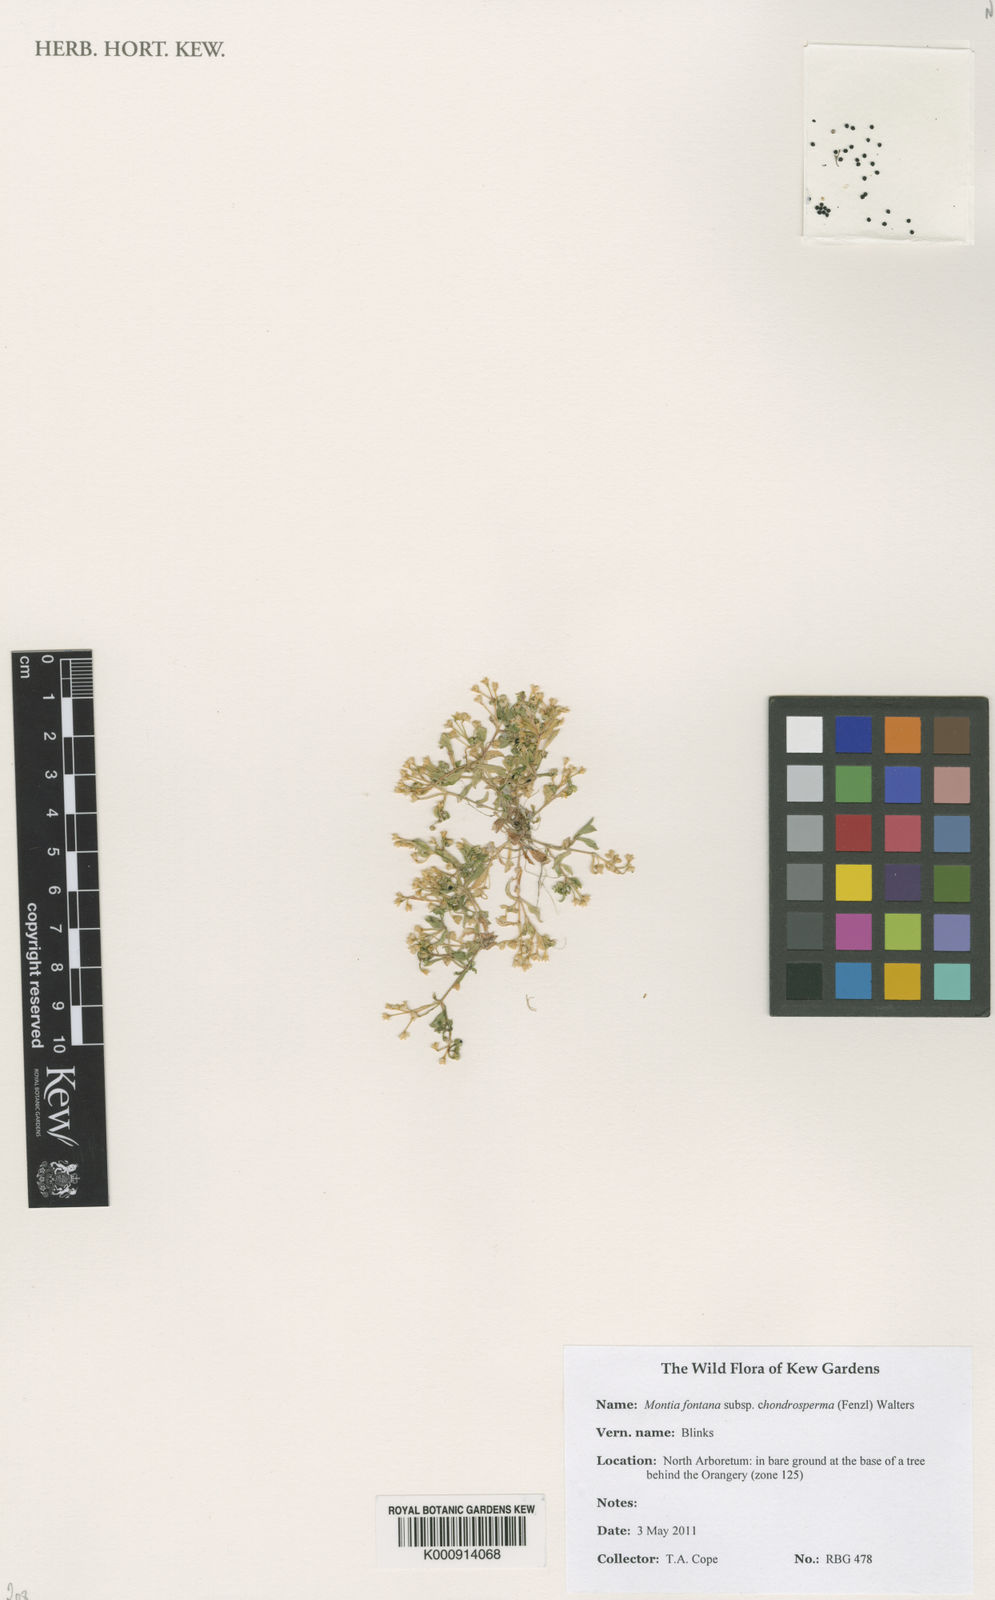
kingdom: Plantae
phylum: Tracheophyta
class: Magnoliopsida
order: Caryophyllales
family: Montiaceae
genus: Montia
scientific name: Montia arvensis
